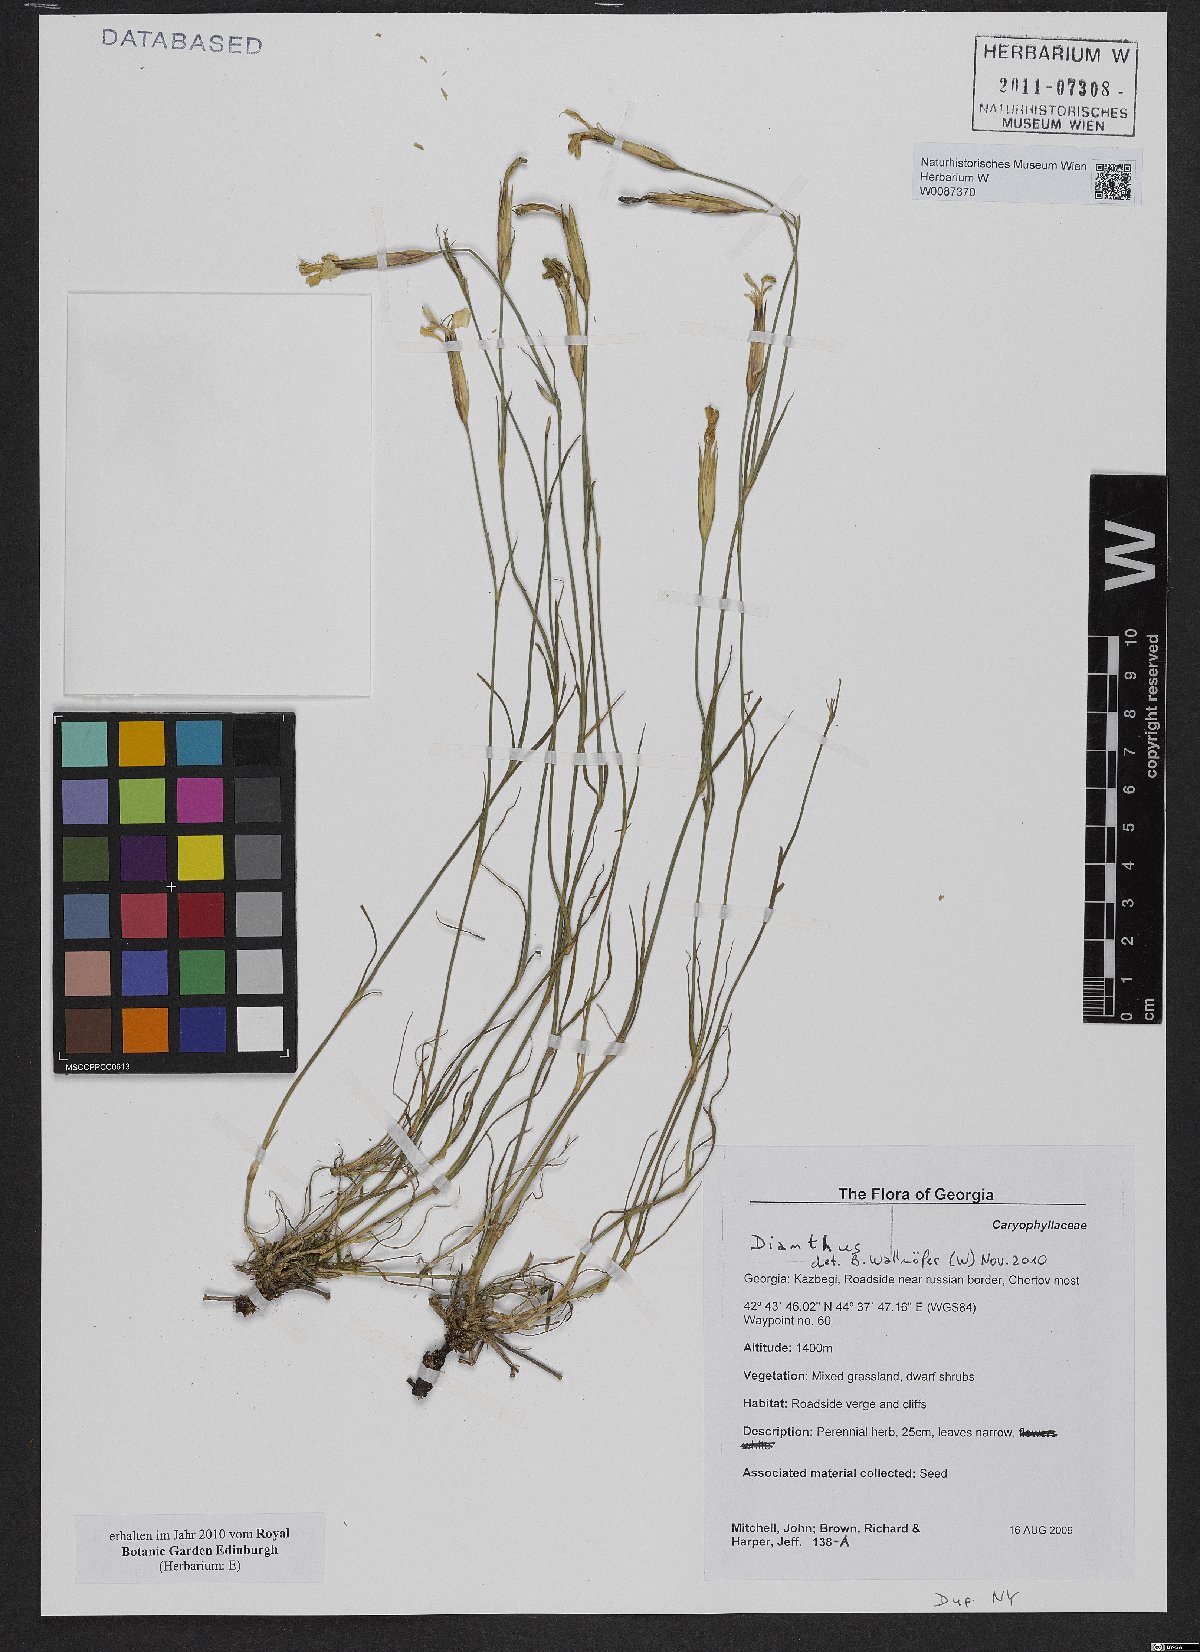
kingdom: Plantae
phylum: Tracheophyta
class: Magnoliopsida
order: Caryophyllales
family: Caryophyllaceae
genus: Dianthus
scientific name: Dianthus
